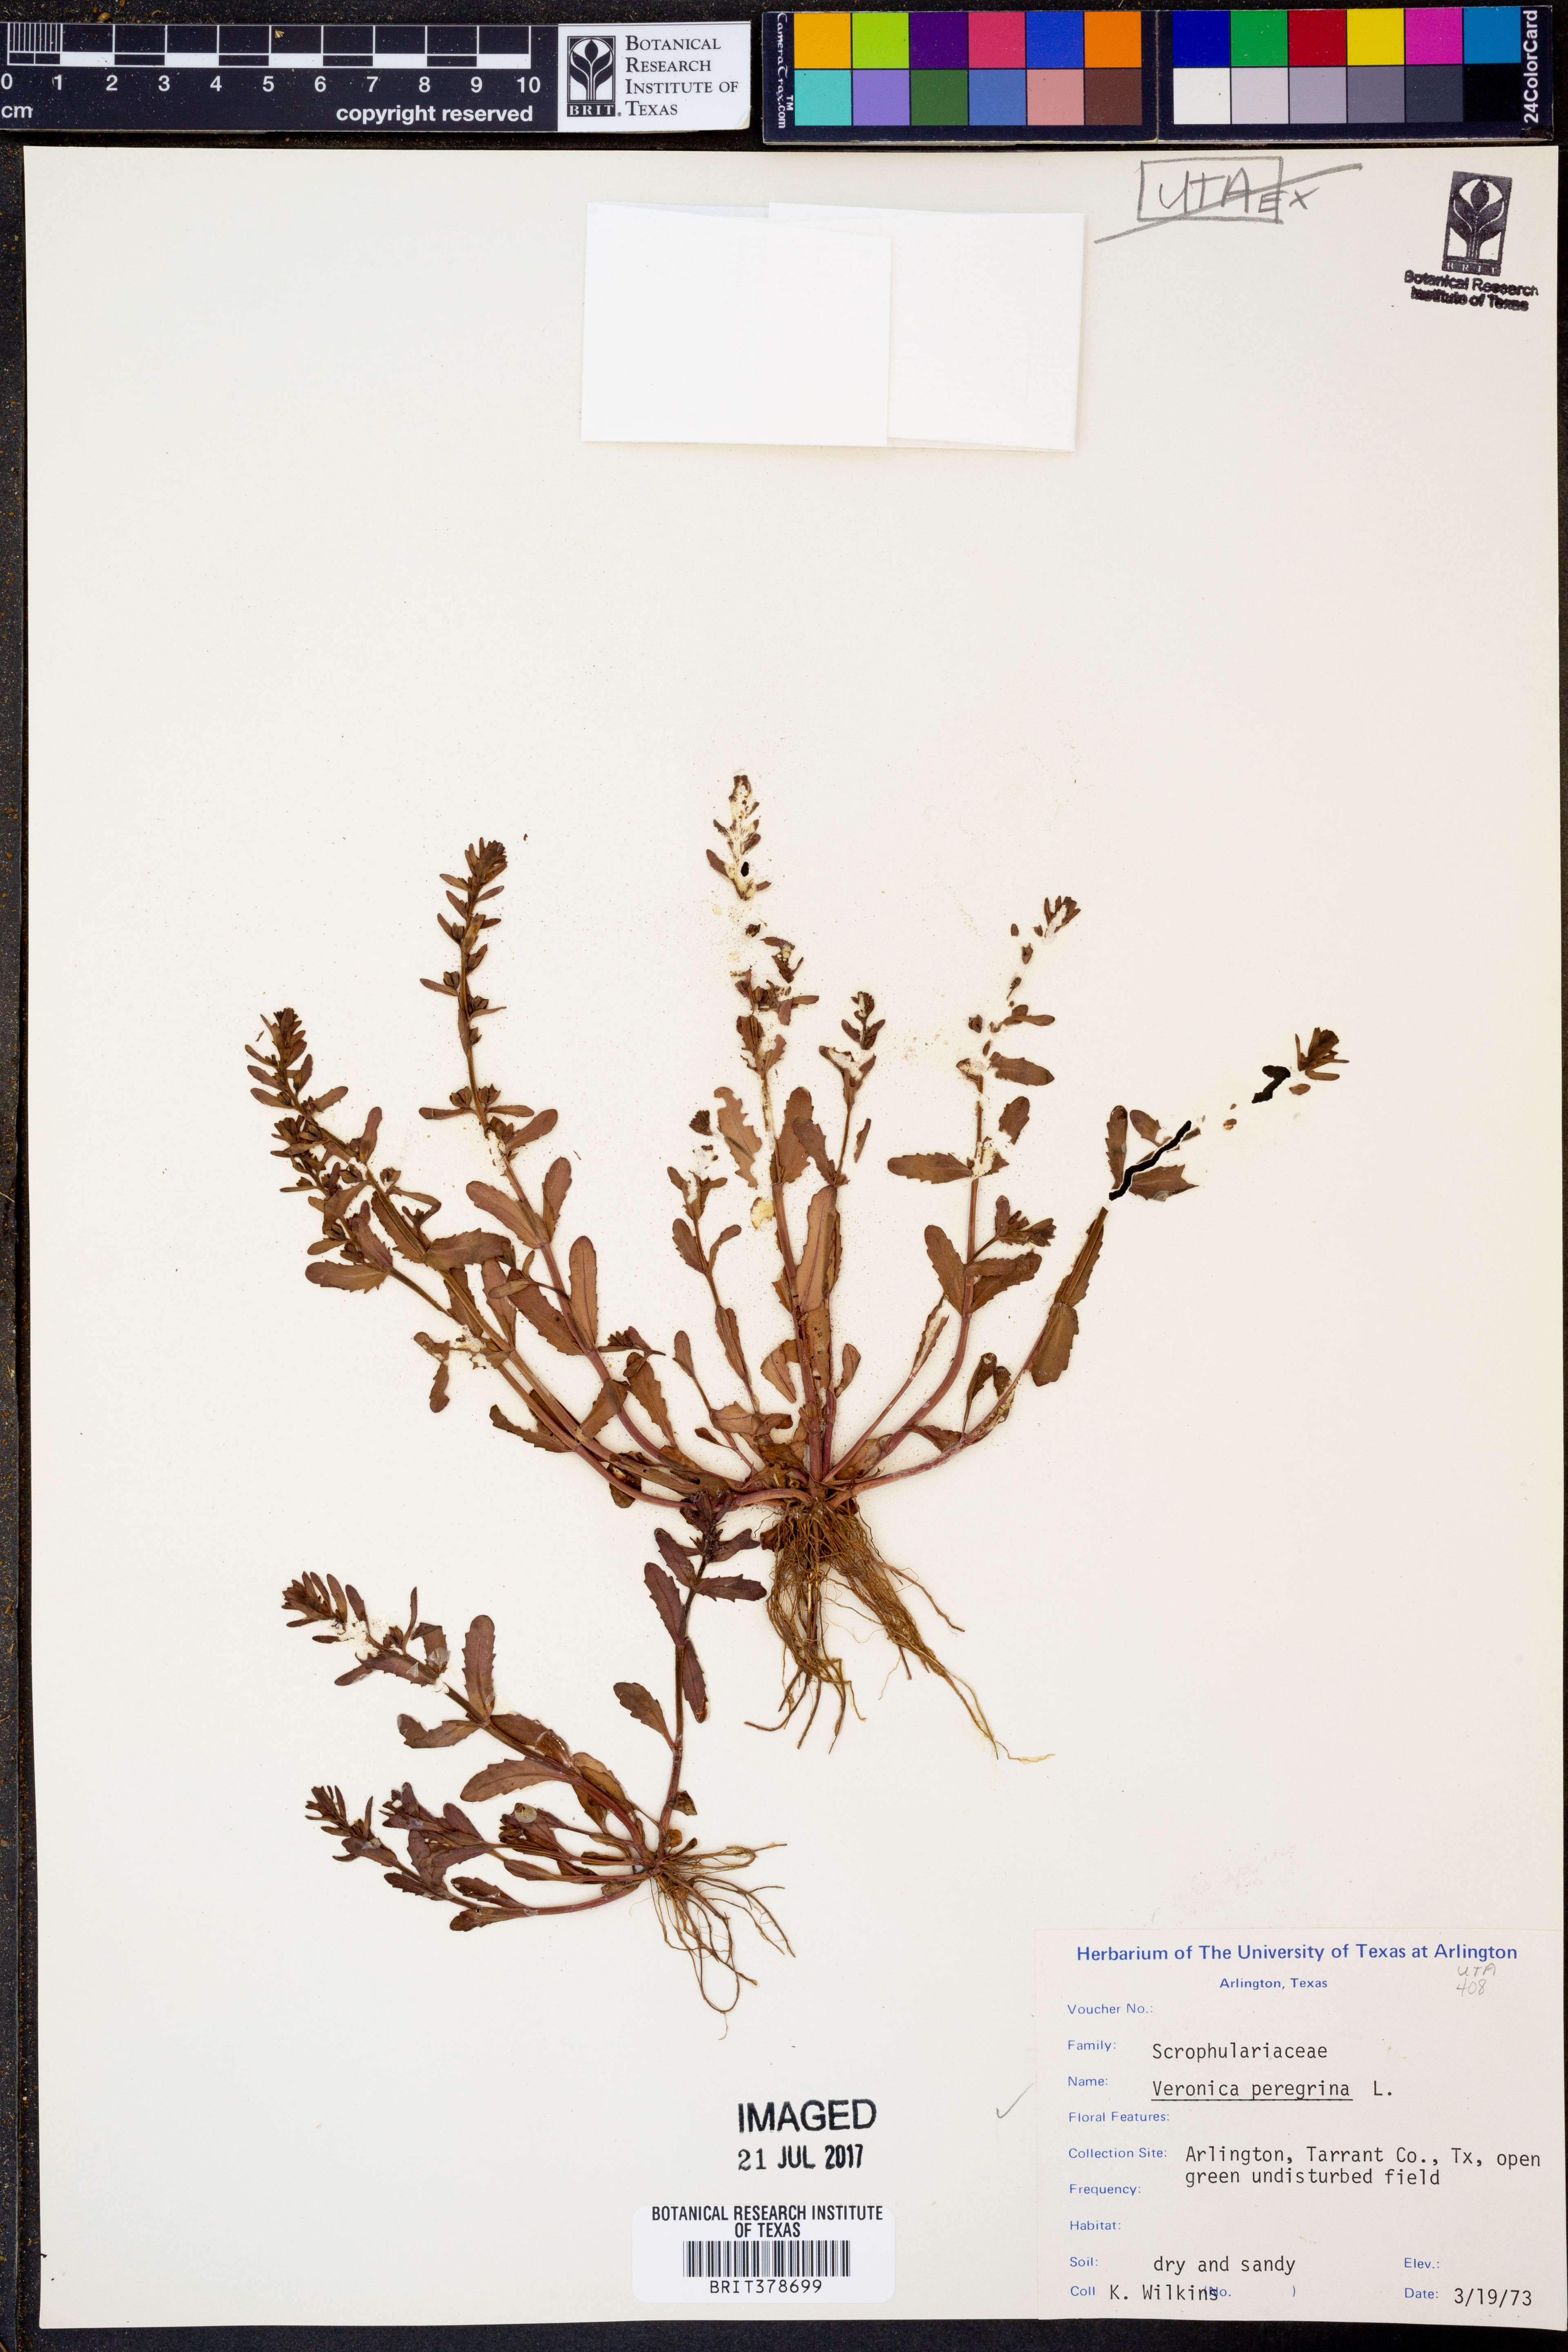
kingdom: Plantae
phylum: Tracheophyta
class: Magnoliopsida
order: Lamiales
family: Plantaginaceae
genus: Veronica
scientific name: Veronica peregrina
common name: Neckweed
